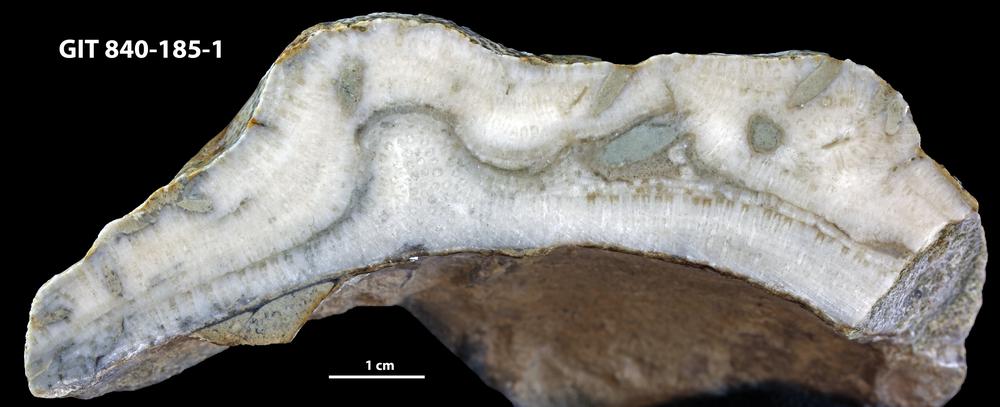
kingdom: Animalia
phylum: Sipuncula
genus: Trypanites
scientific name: Trypanites
